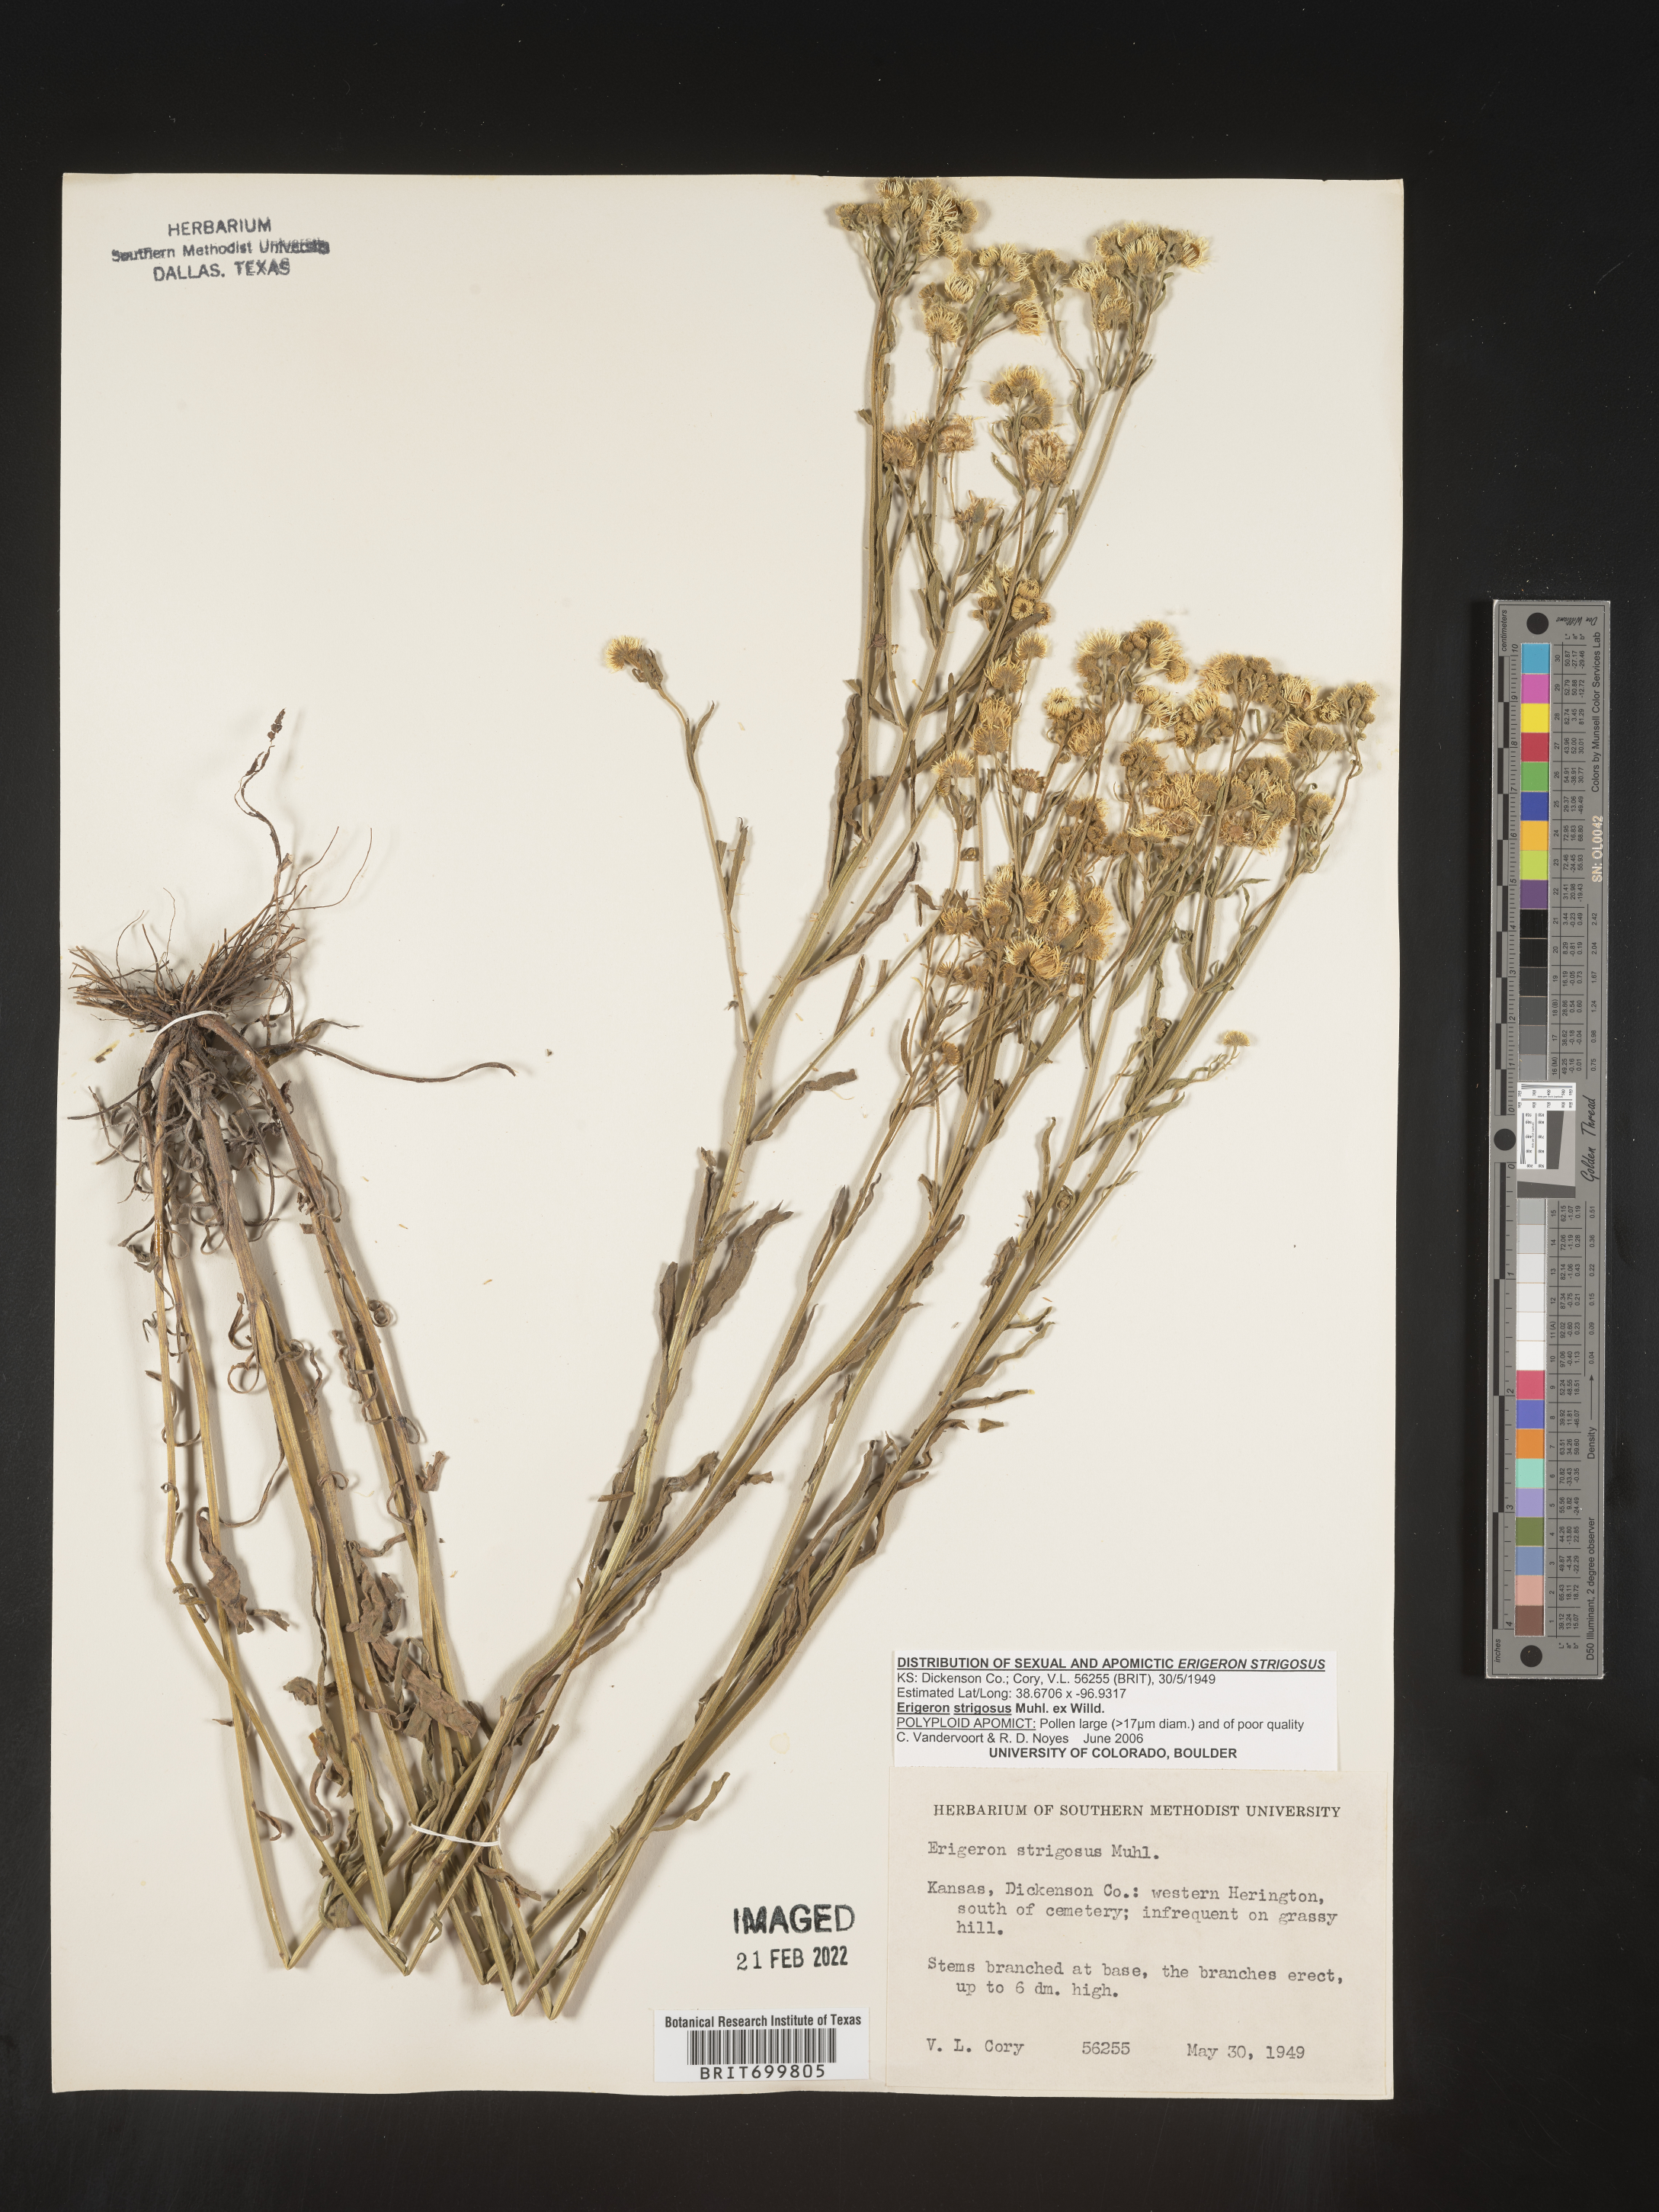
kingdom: Plantae
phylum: Tracheophyta
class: Magnoliopsida
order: Asterales
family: Asteraceae
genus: Erigeron
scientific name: Erigeron strigosus
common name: Common eastern fleabane
